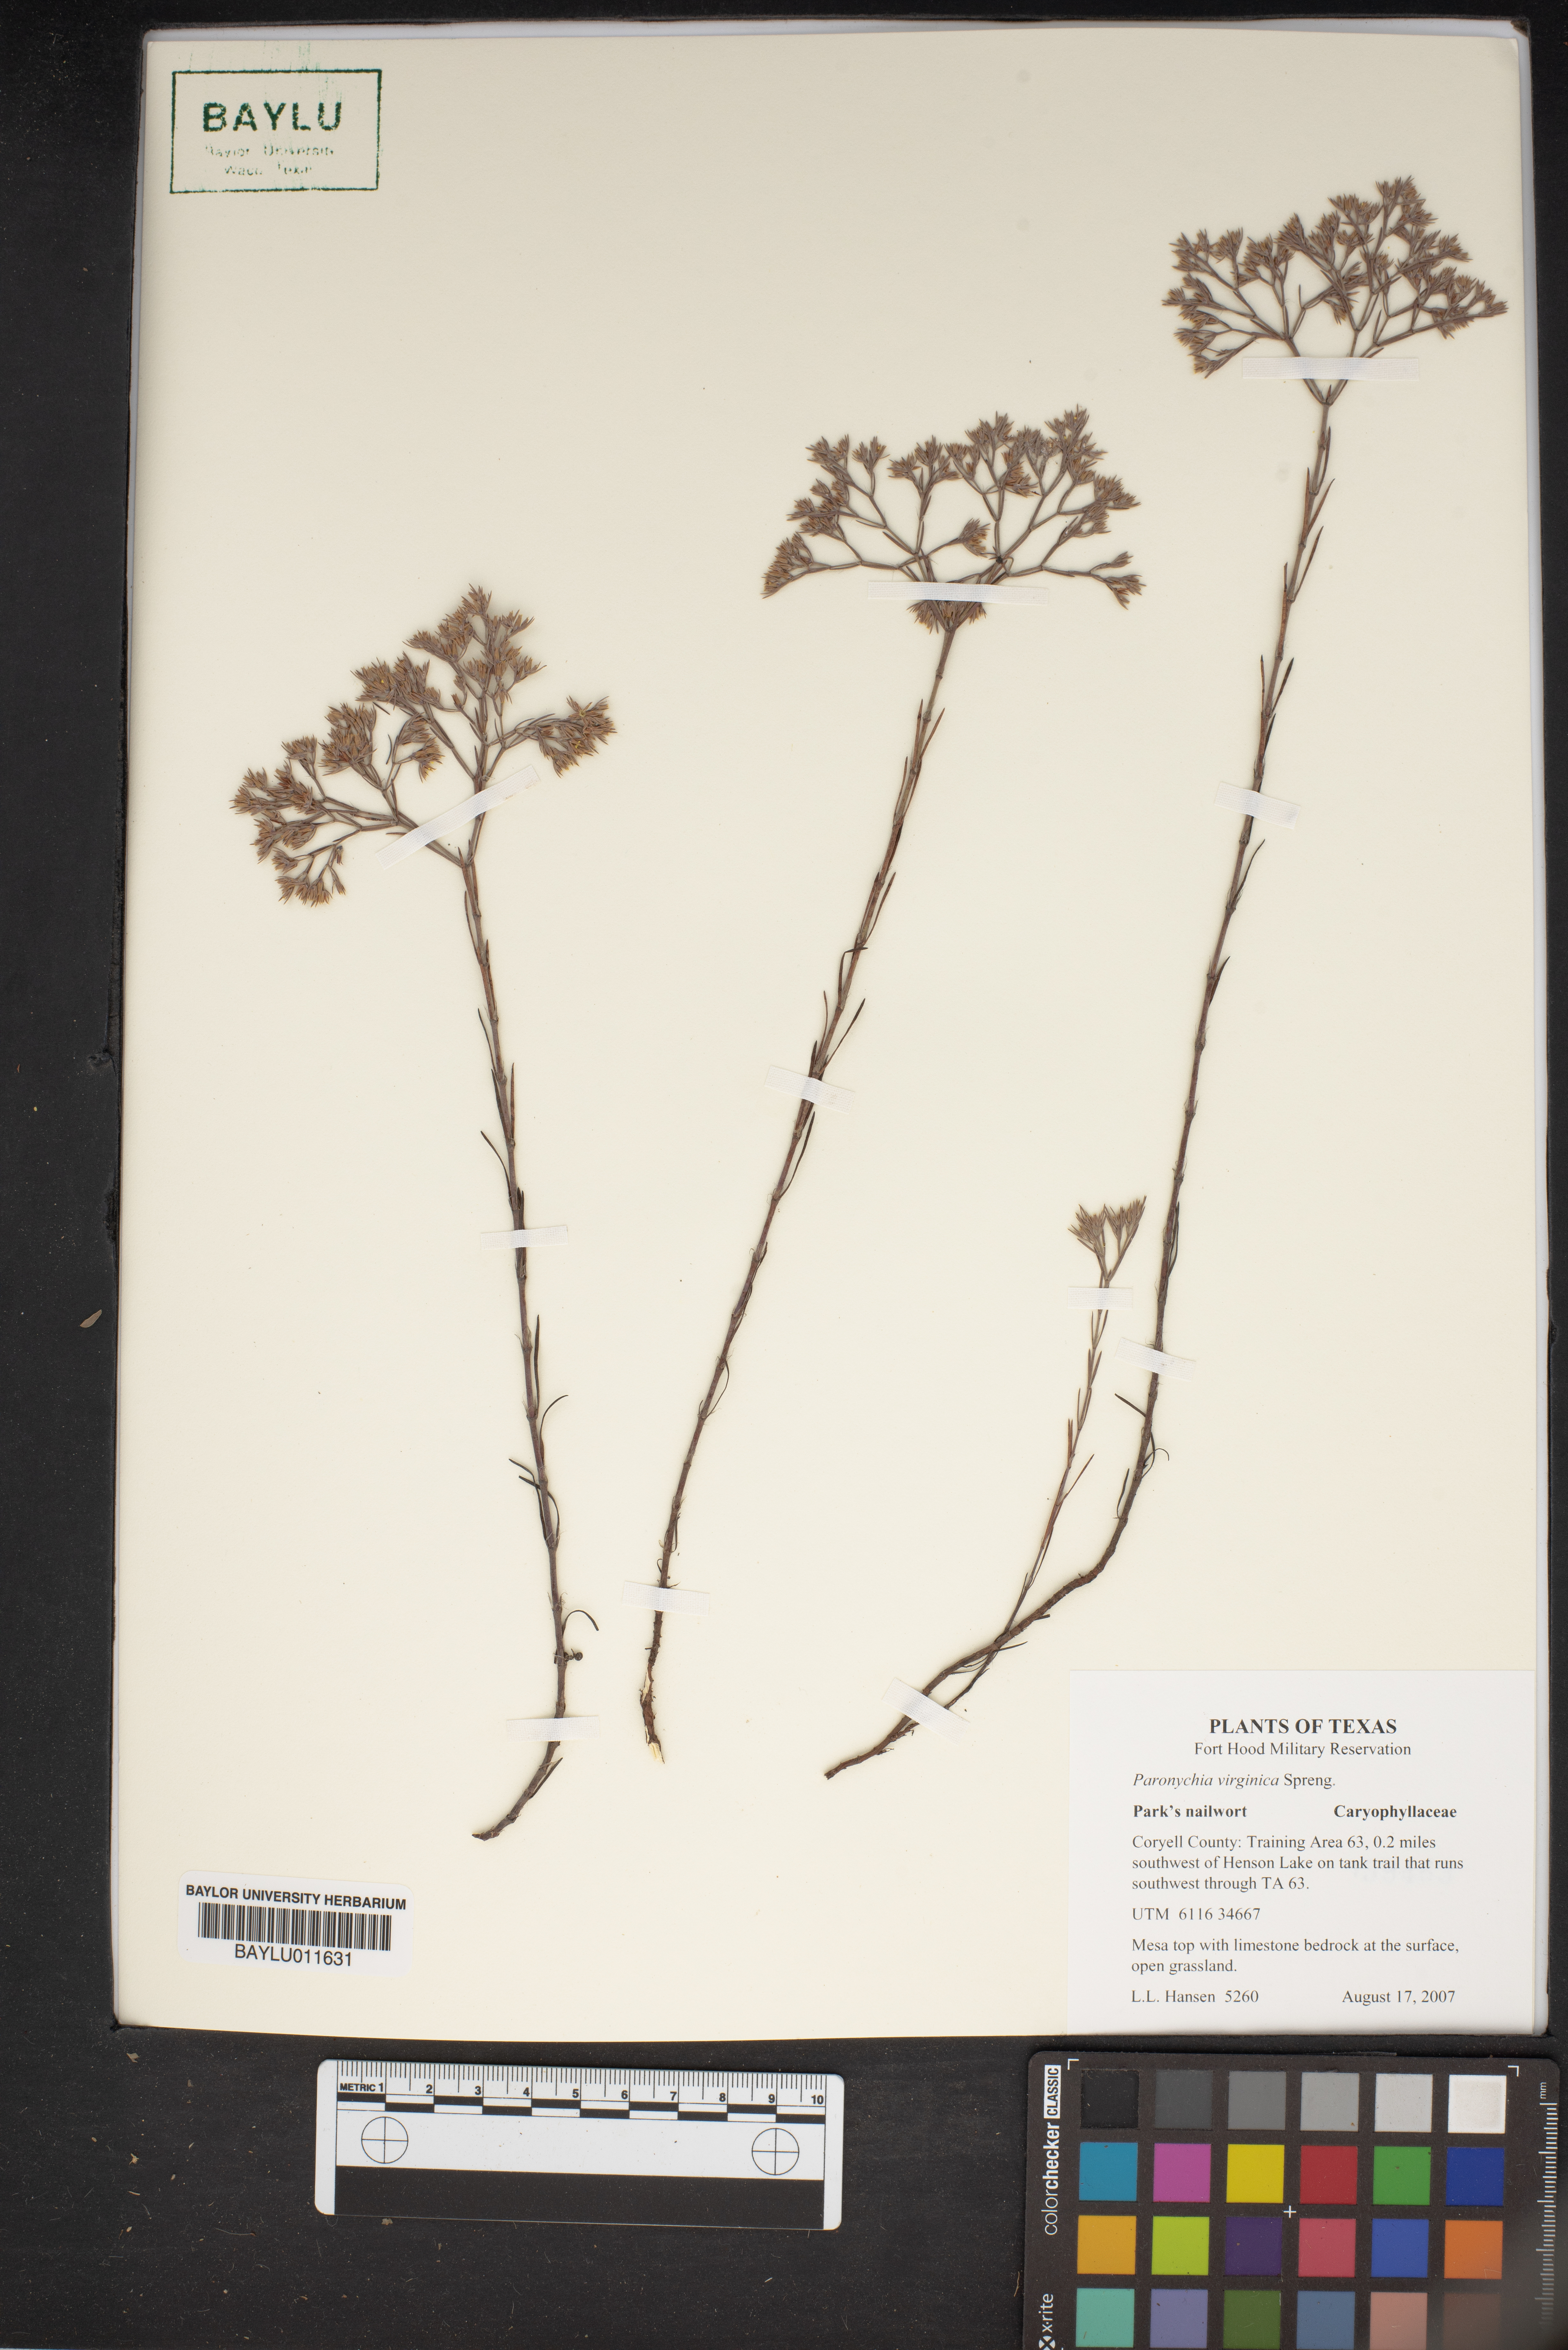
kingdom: Plantae
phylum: Tracheophyta
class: Magnoliopsida
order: Caryophyllales
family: Caryophyllaceae
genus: Paronychia
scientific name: Paronychia virginica
